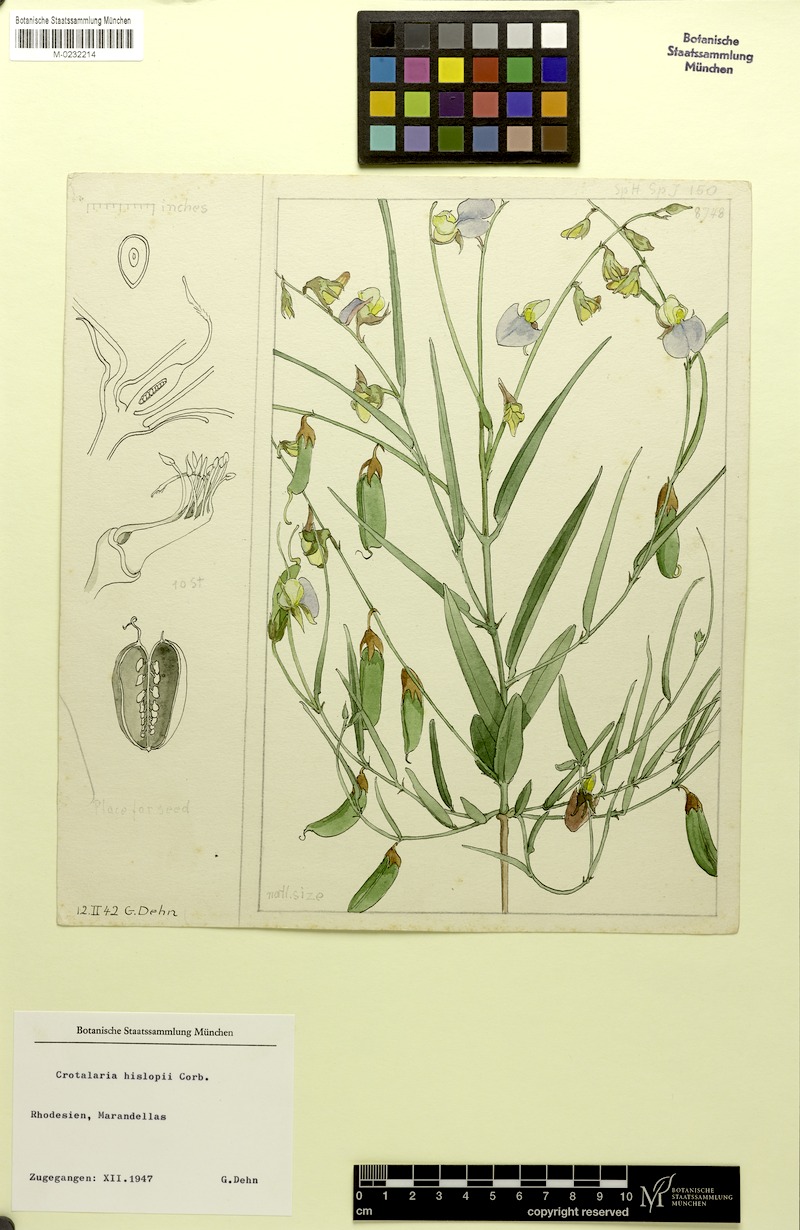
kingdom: Plantae
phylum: Tracheophyta
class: Magnoliopsida
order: Fabales
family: Fabaceae
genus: Crotalaria
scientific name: Crotalaria anisophylla
